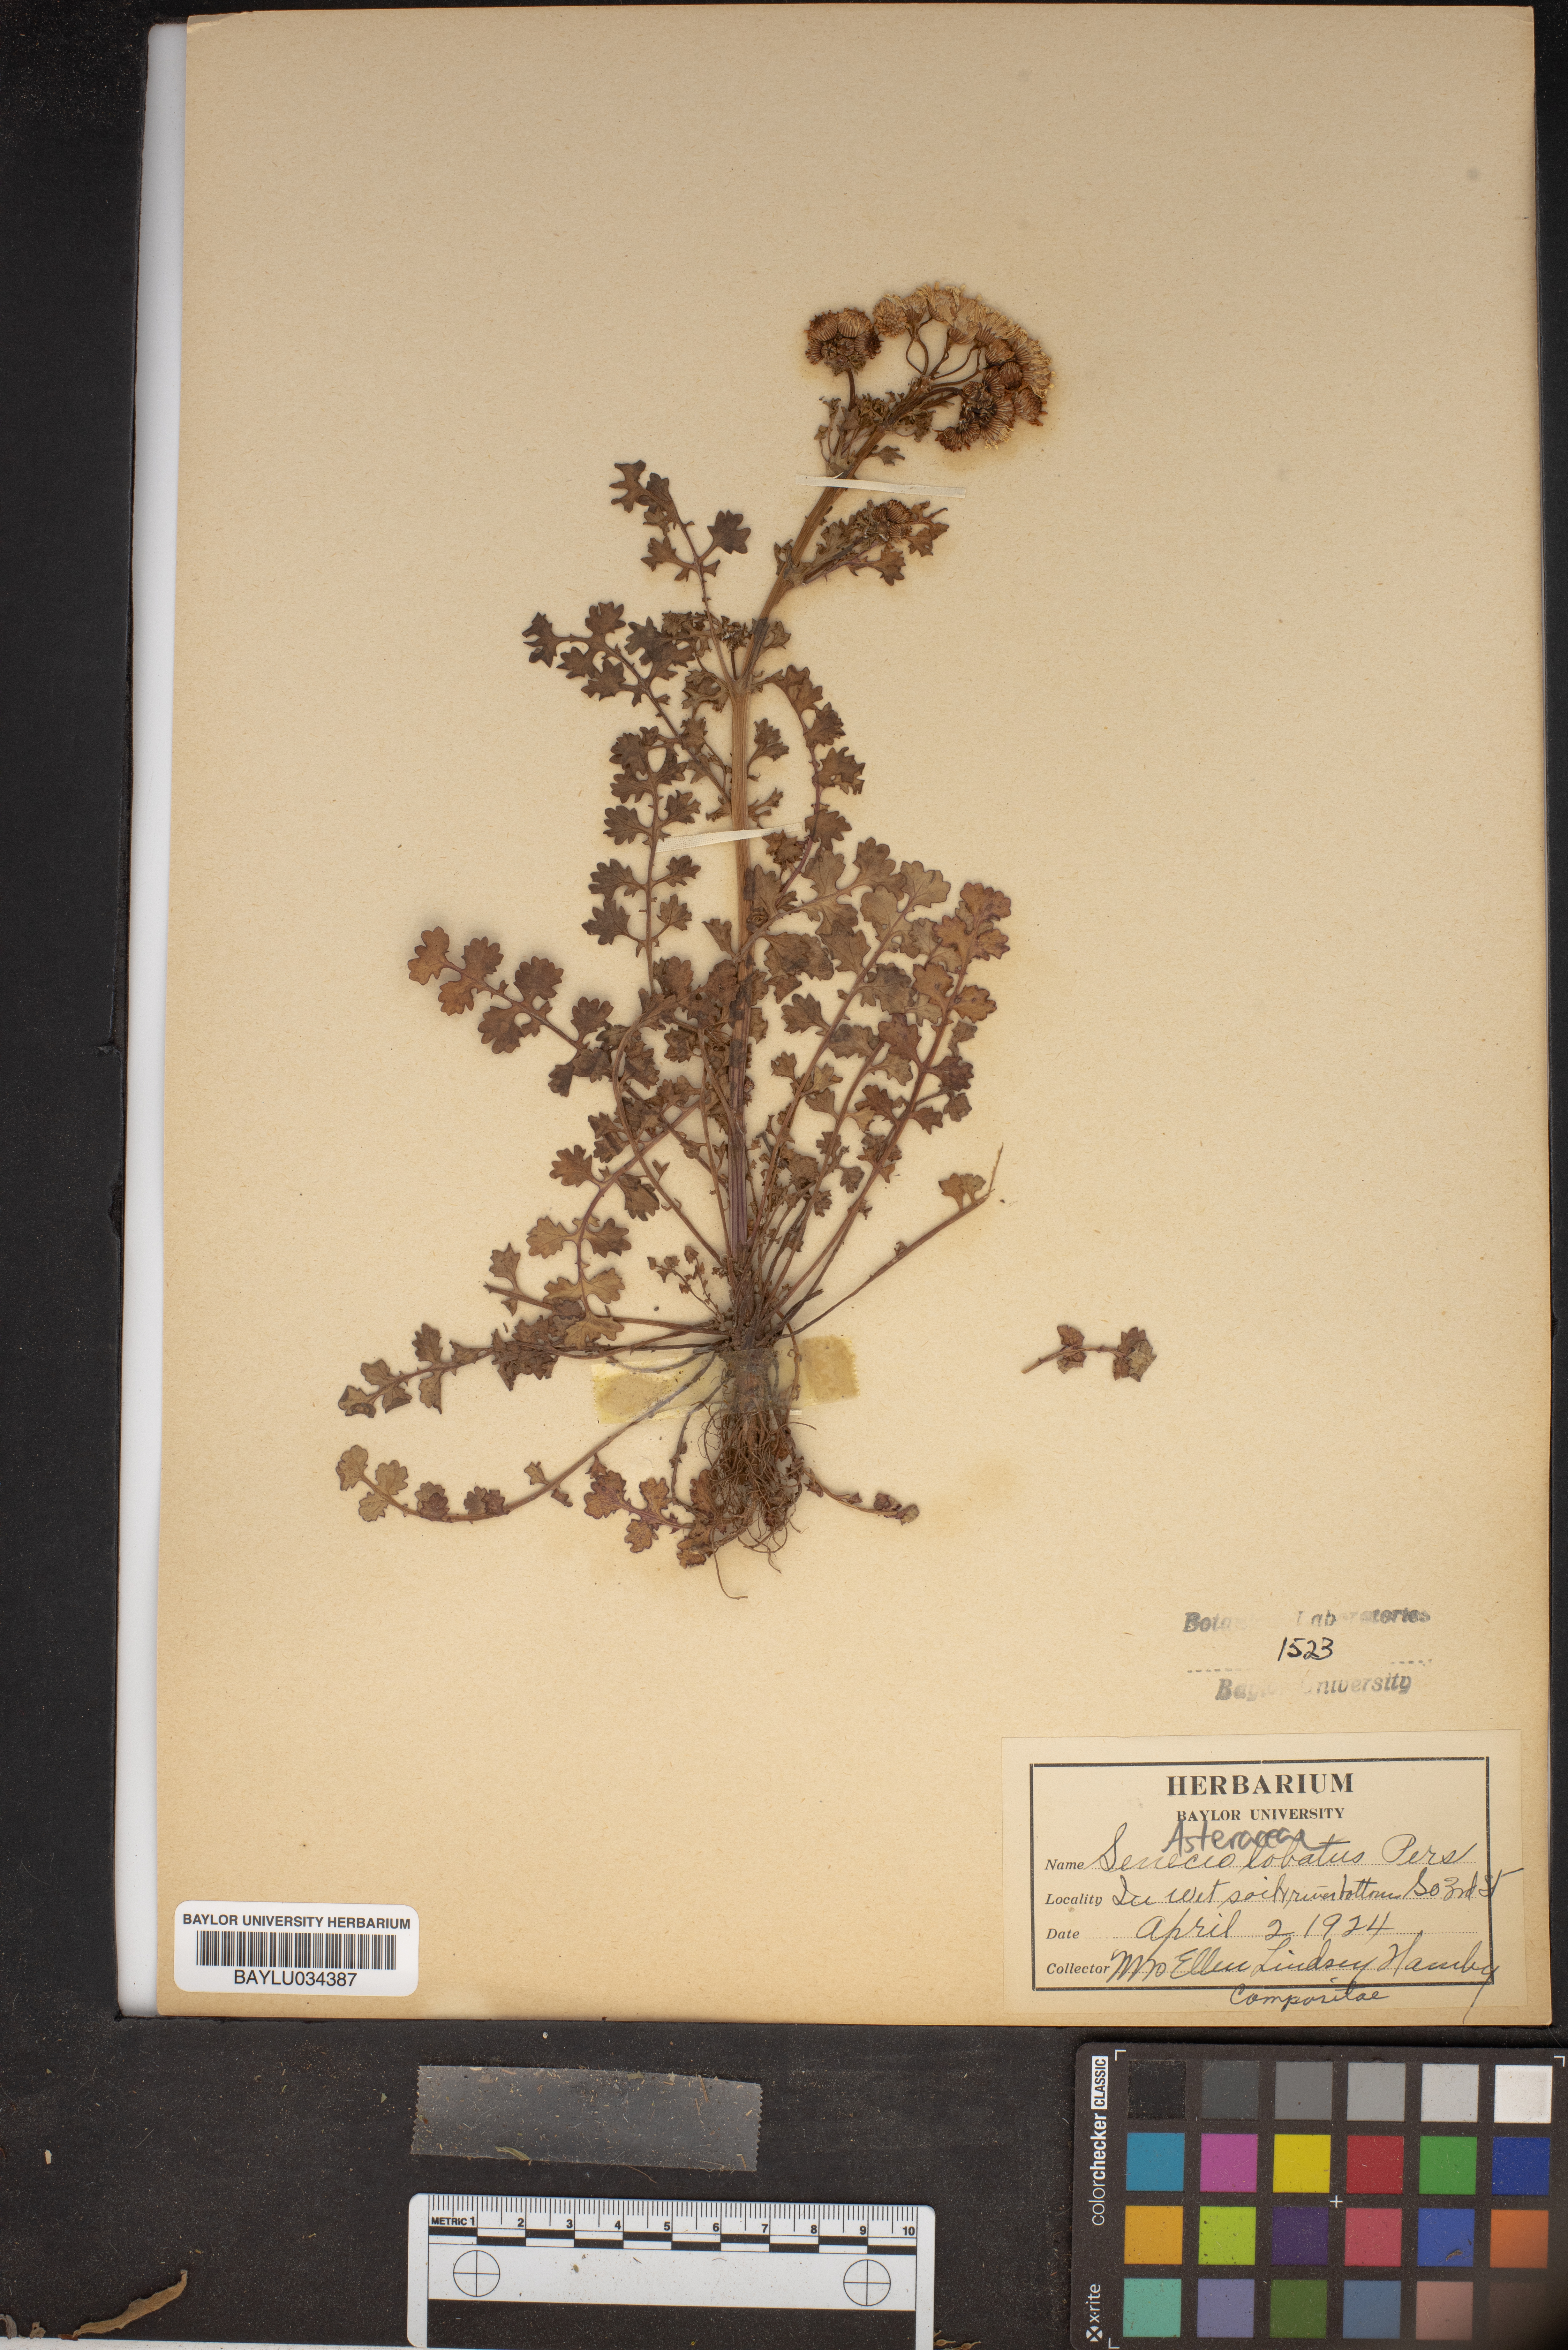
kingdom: Plantae
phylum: Tracheophyta
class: Magnoliopsida
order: Asterales
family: Asteraceae
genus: Packera
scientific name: Packera glabella
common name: Butterweed
